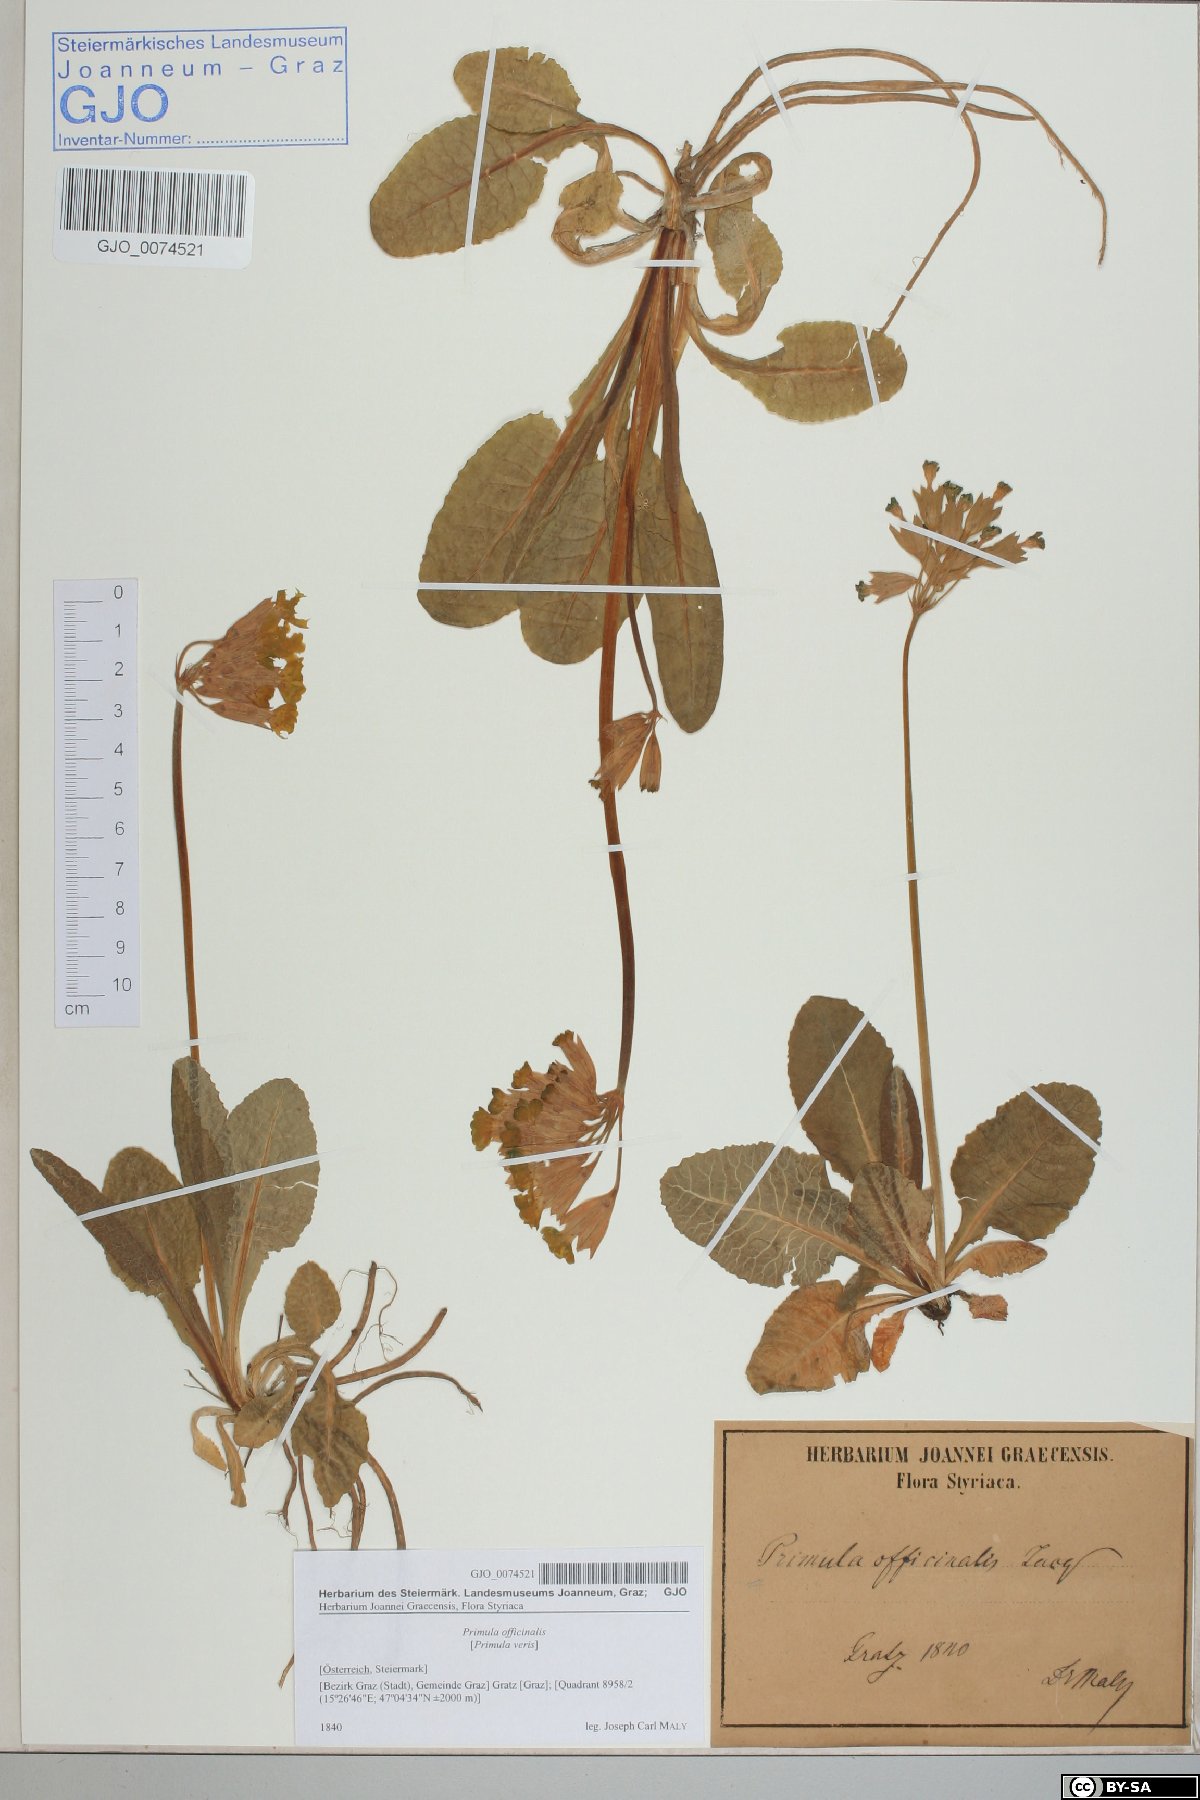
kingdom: Plantae
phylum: Tracheophyta
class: Magnoliopsida
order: Ericales
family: Primulaceae
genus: Primula
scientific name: Primula veris
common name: Cowslip
